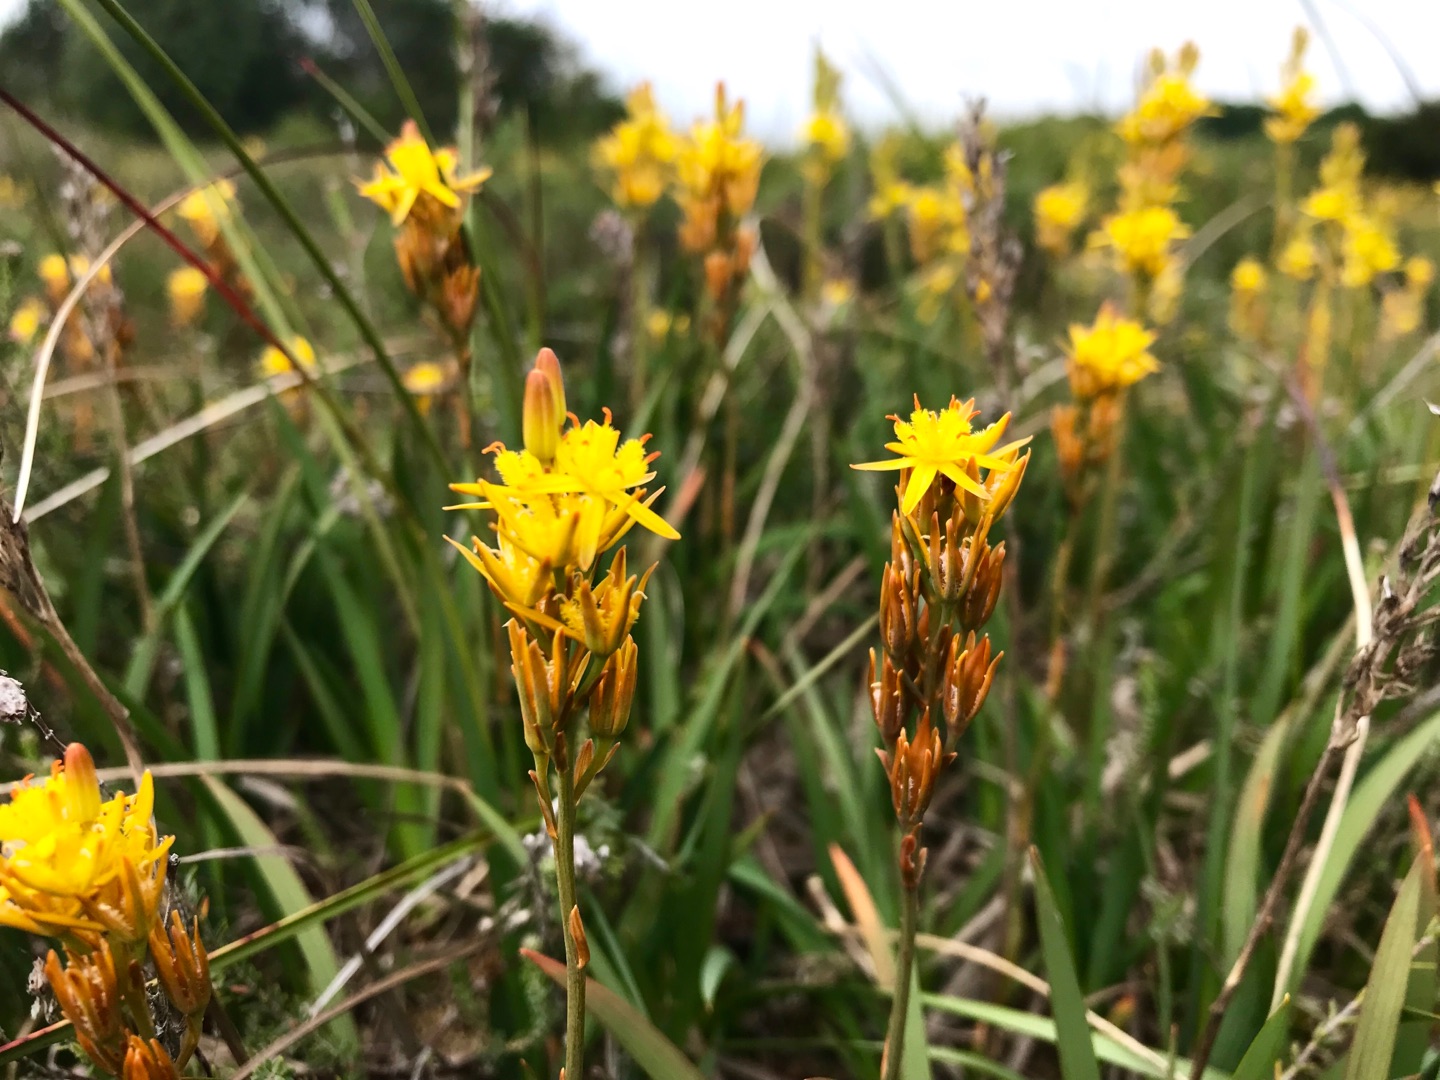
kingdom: Plantae
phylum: Tracheophyta
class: Liliopsida
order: Dioscoreales
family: Nartheciaceae
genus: Narthecium
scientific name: Narthecium ossifragum
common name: Benbræk
